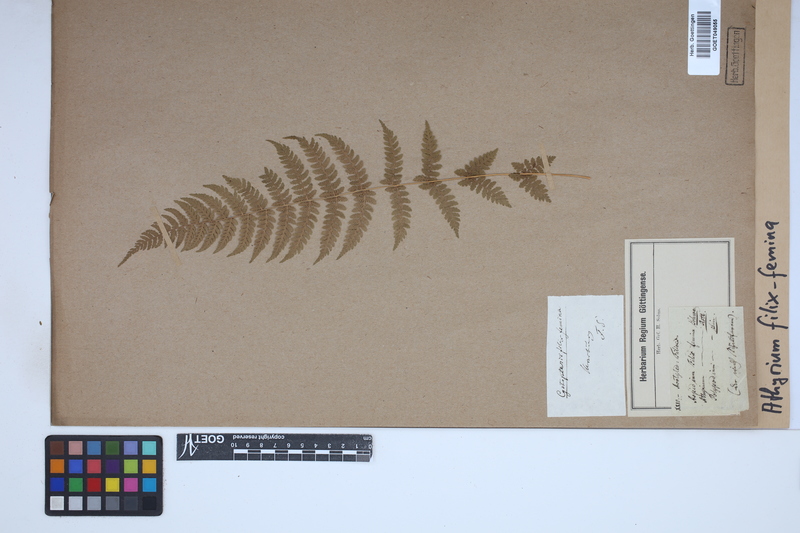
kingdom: Plantae
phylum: Tracheophyta
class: Polypodiopsida
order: Polypodiales
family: Athyriaceae
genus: Athyrium
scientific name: Athyrium filix-femina
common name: Lady fern
